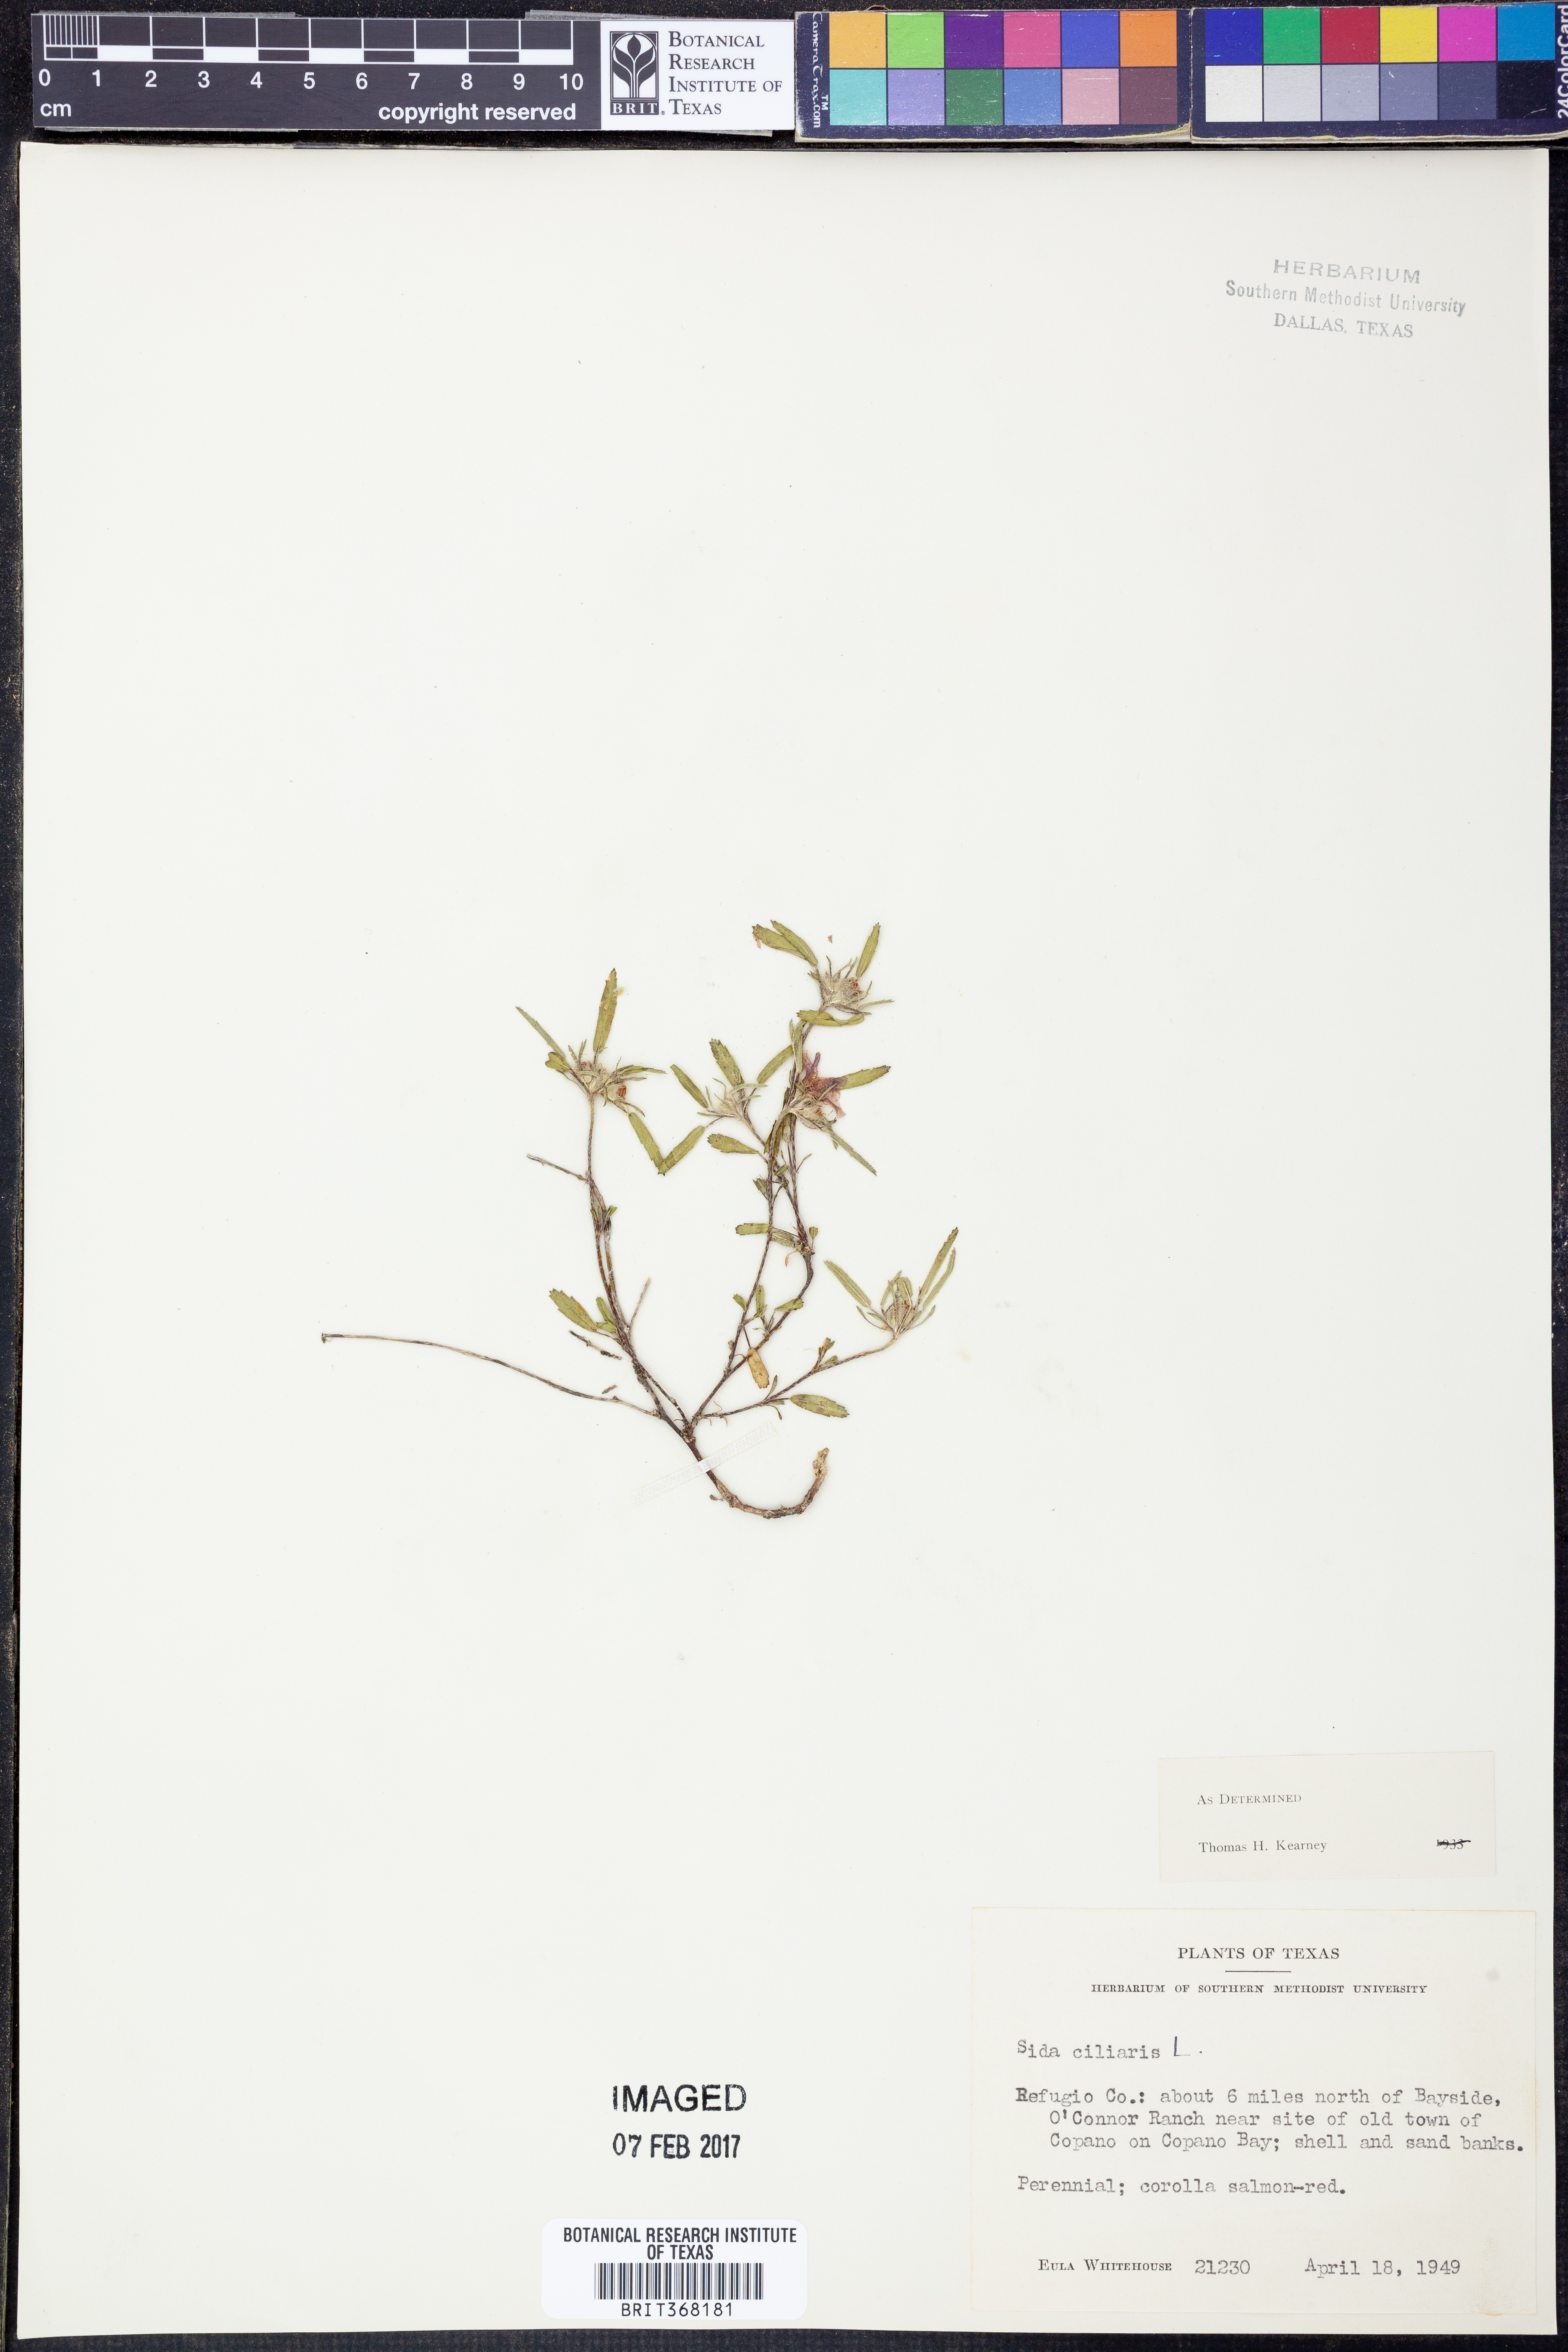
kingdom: Plantae
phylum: Tracheophyta
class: Magnoliopsida
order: Malvales
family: Malvaceae
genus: Sida
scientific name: Sida ciliaris
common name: Bracted fanpetals
